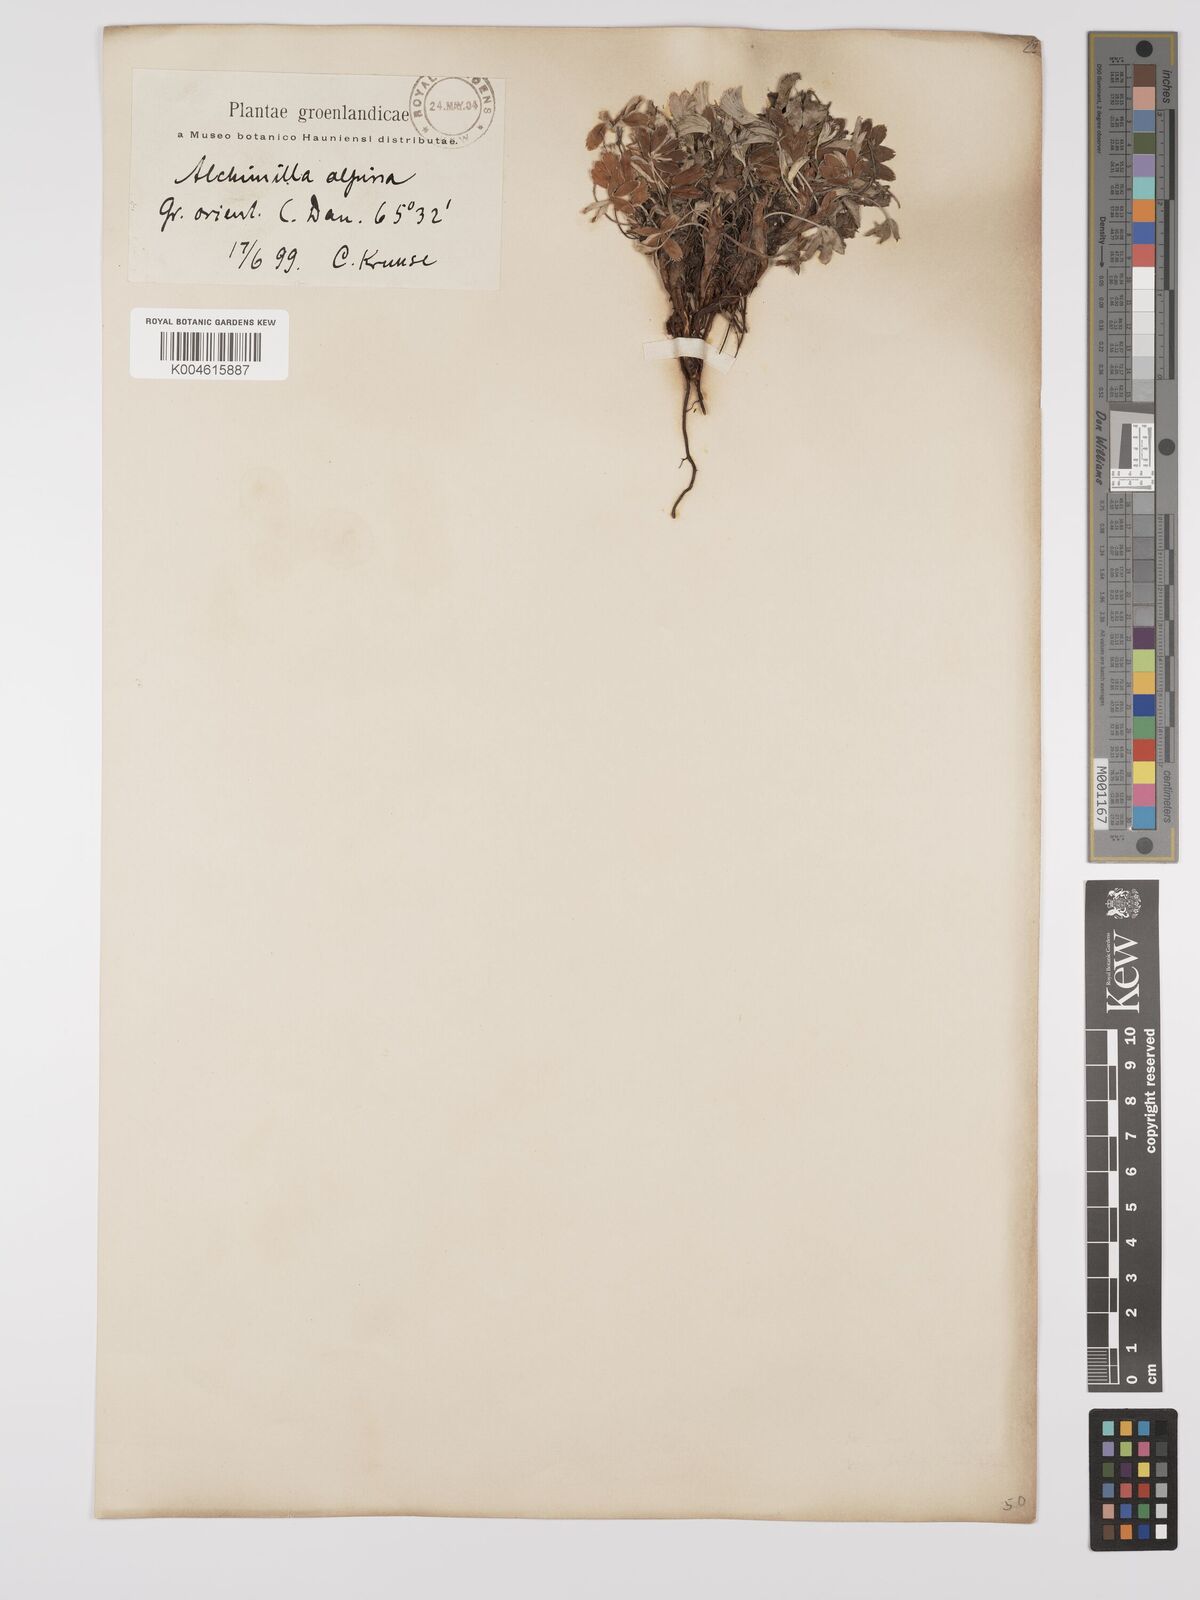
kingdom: Plantae
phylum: Tracheophyta
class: Magnoliopsida
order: Rosales
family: Rosaceae
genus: Alchemilla
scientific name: Alchemilla alpina
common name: Alpine lady's-mantle
